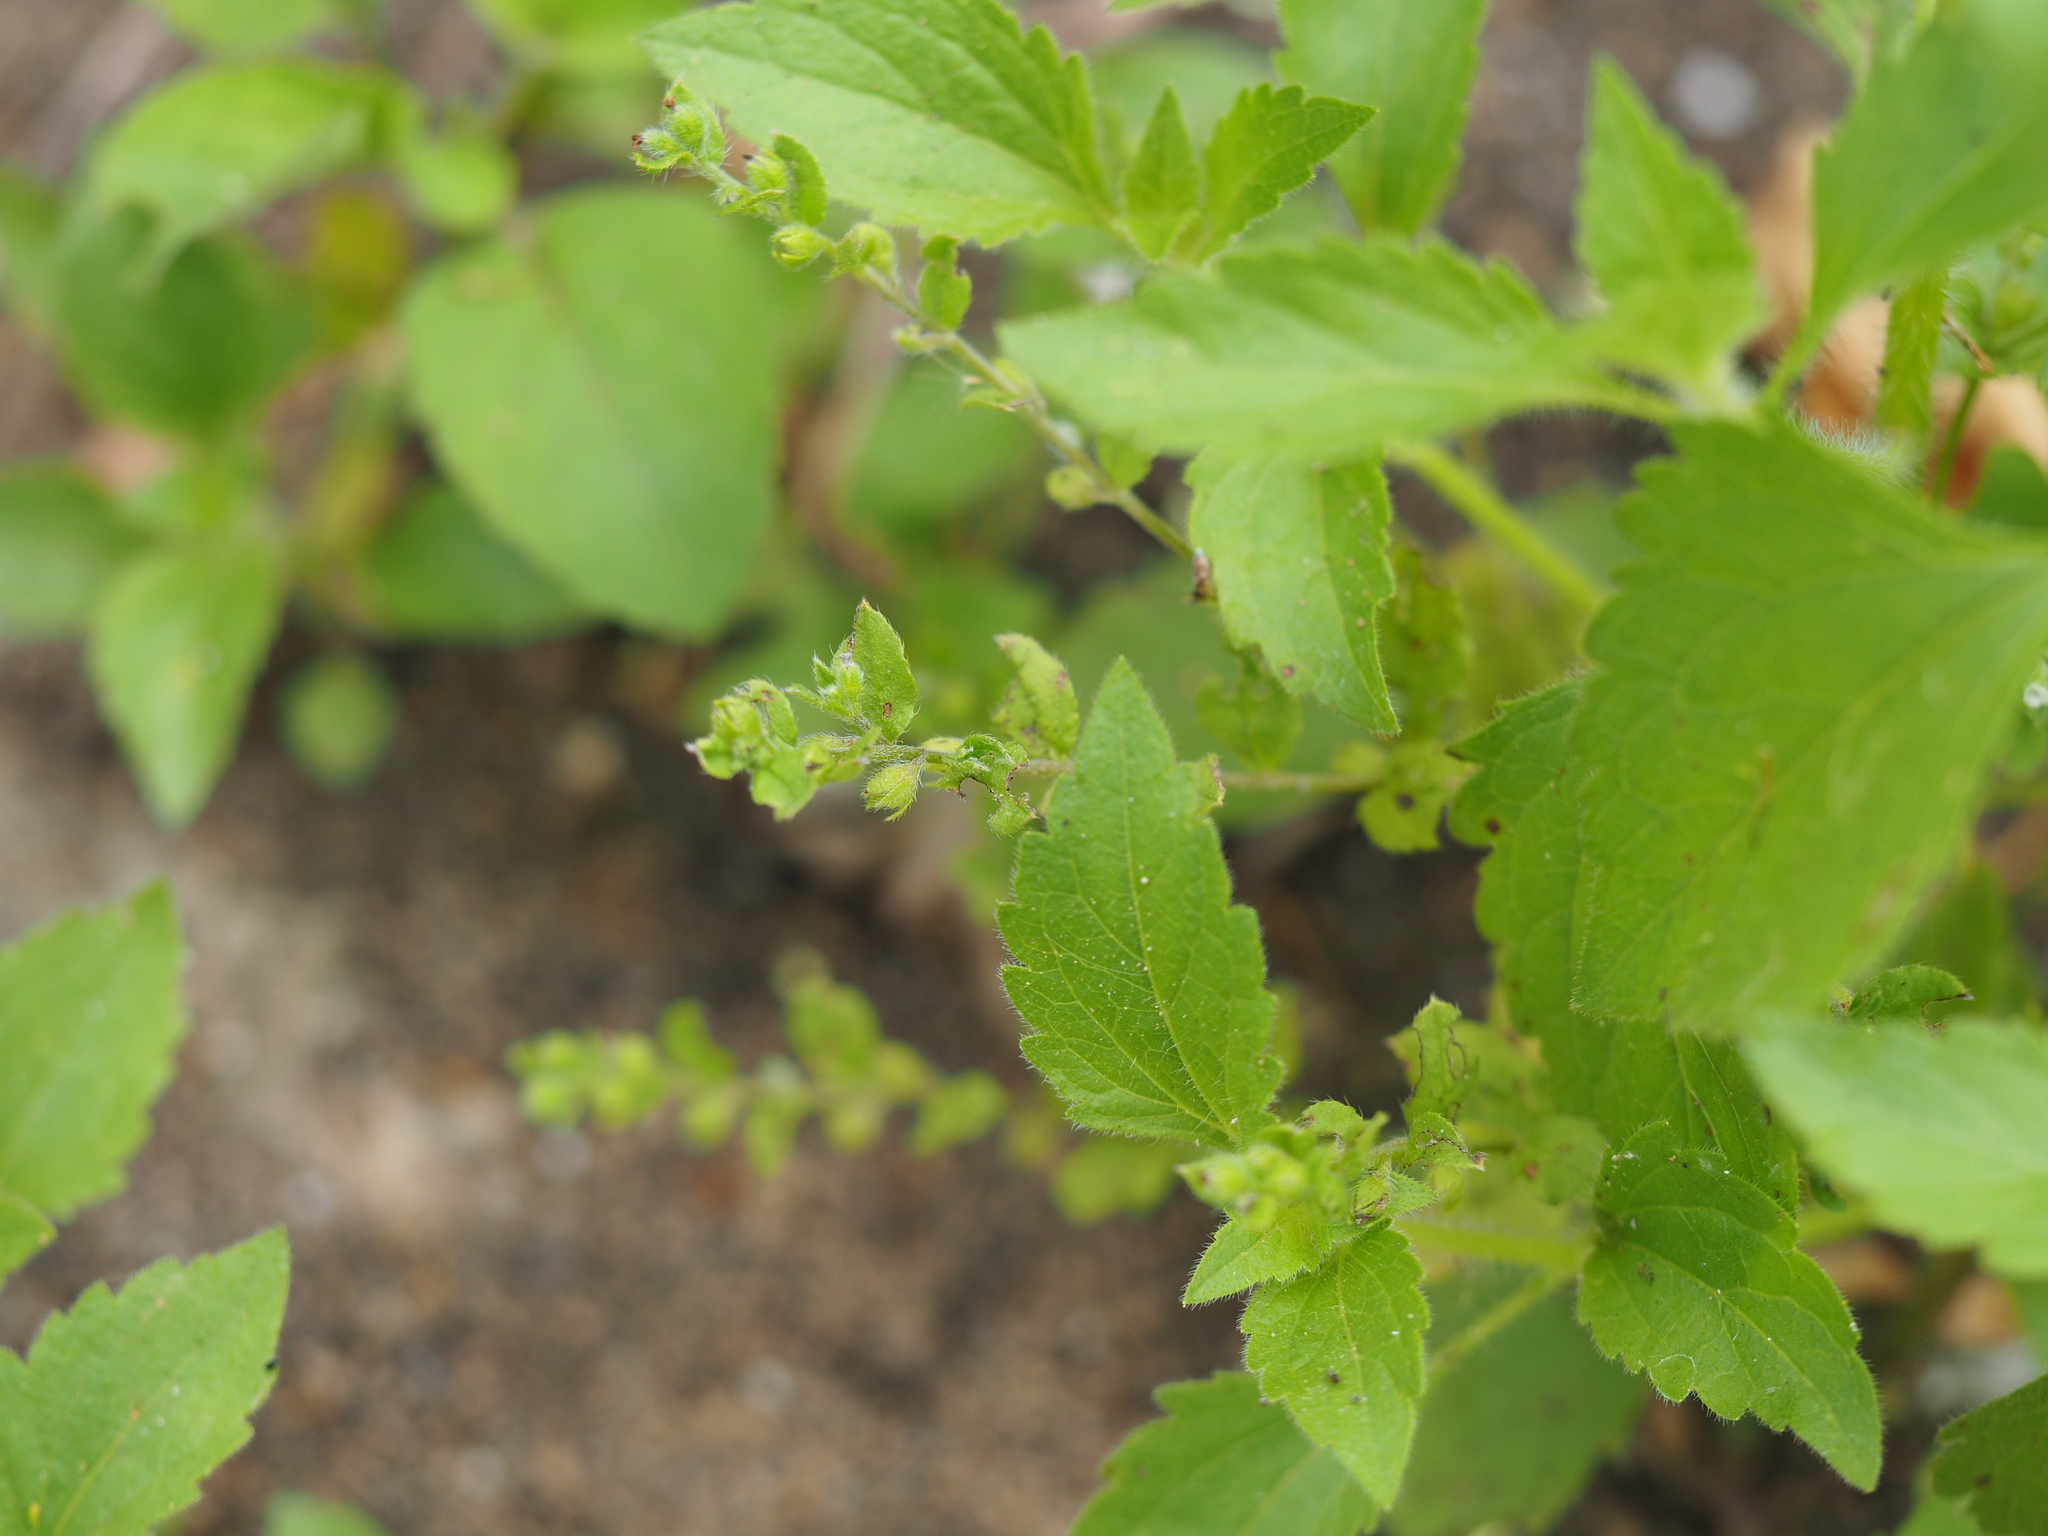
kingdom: Plantae
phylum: Tracheophyta
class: Magnoliopsida
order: Boraginales
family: Boraginaceae
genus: Bothriospermum
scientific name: Bothriospermum zeylanicum
